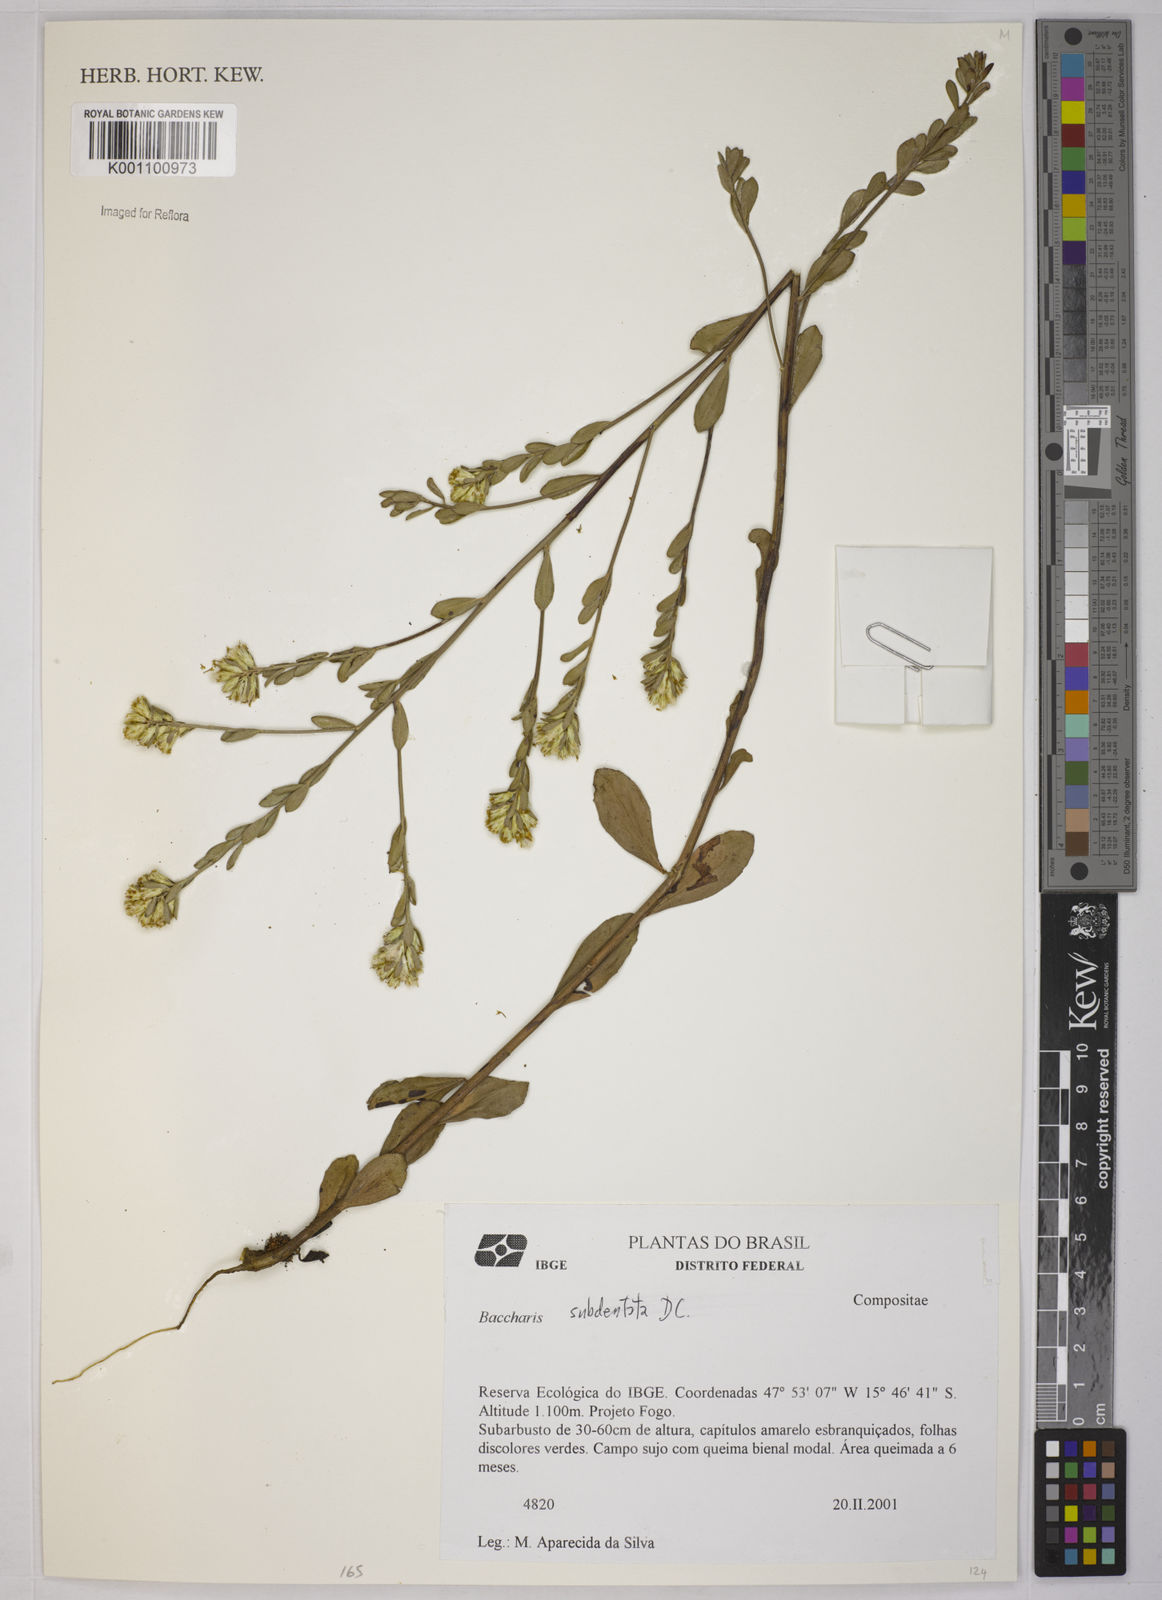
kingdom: Plantae
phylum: Tracheophyta
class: Magnoliopsida
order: Asterales
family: Asteraceae
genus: Baccharis
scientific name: Baccharis subdentata
